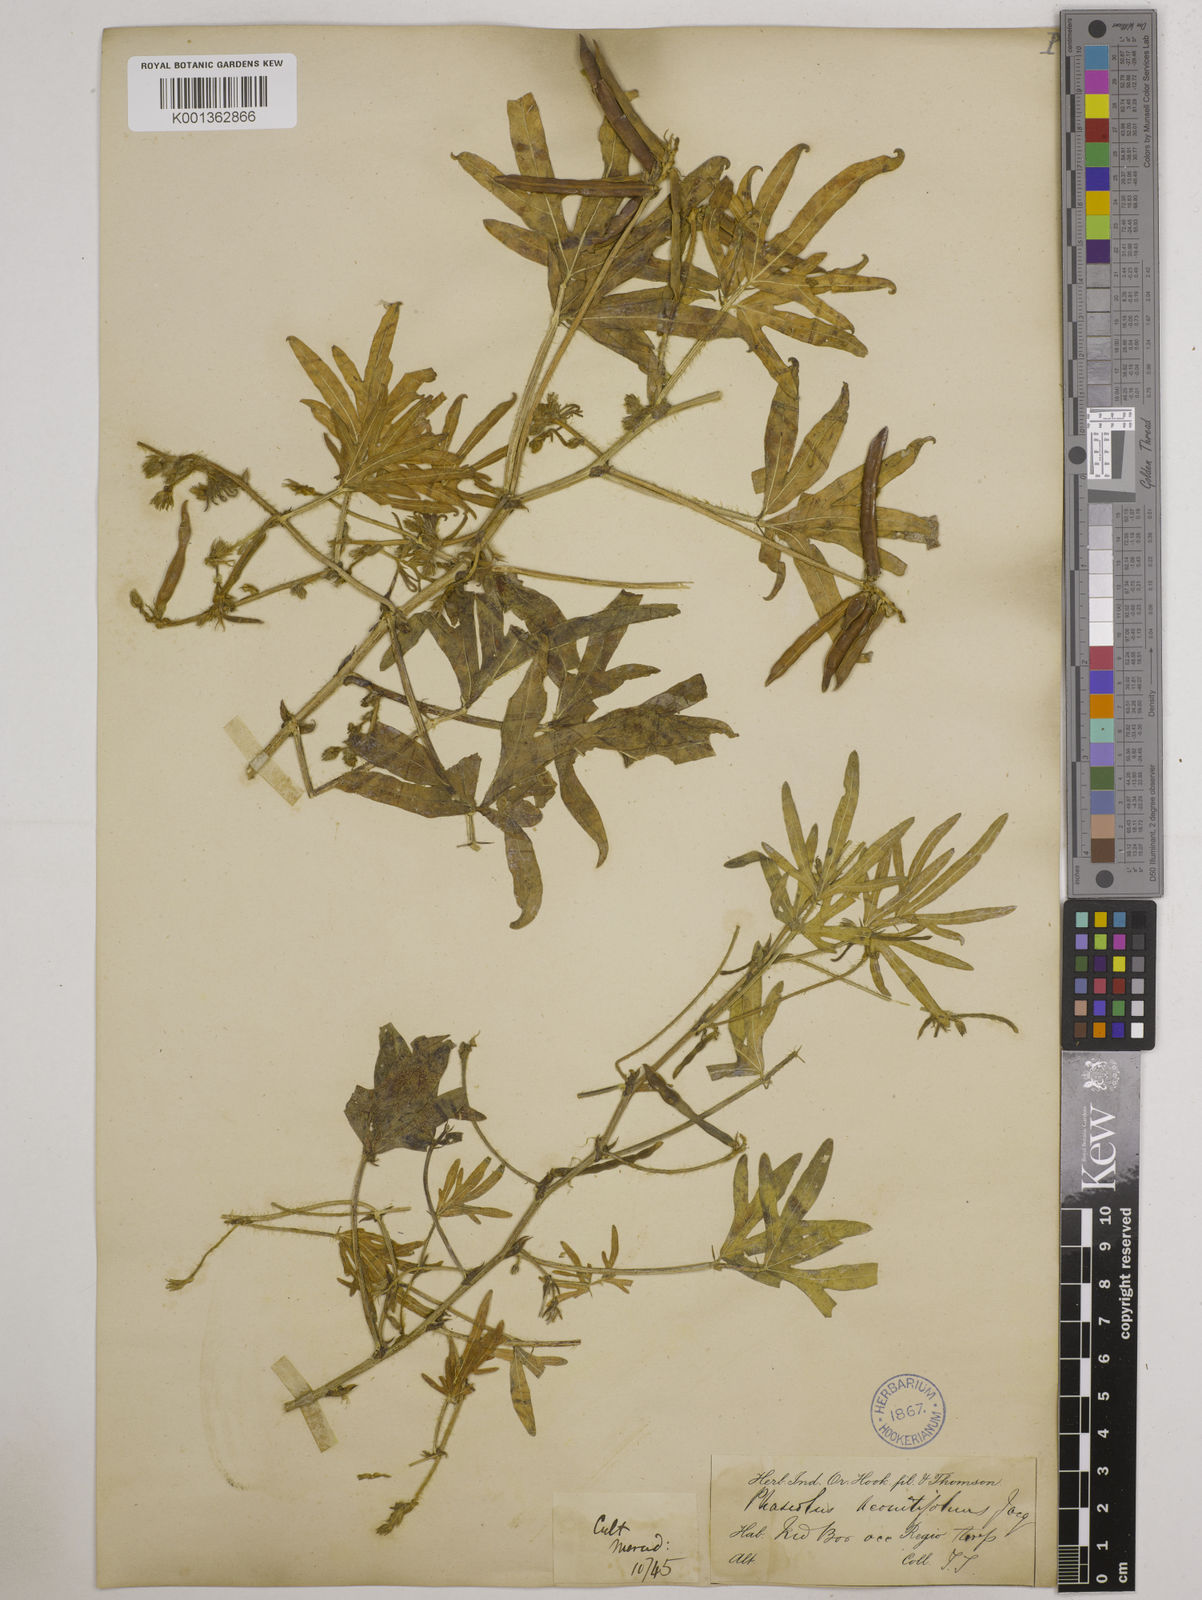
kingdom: Plantae
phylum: Tracheophyta
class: Magnoliopsida
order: Fabales
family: Fabaceae
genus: Vigna
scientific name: Vigna aconitifolia
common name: Dew bean
